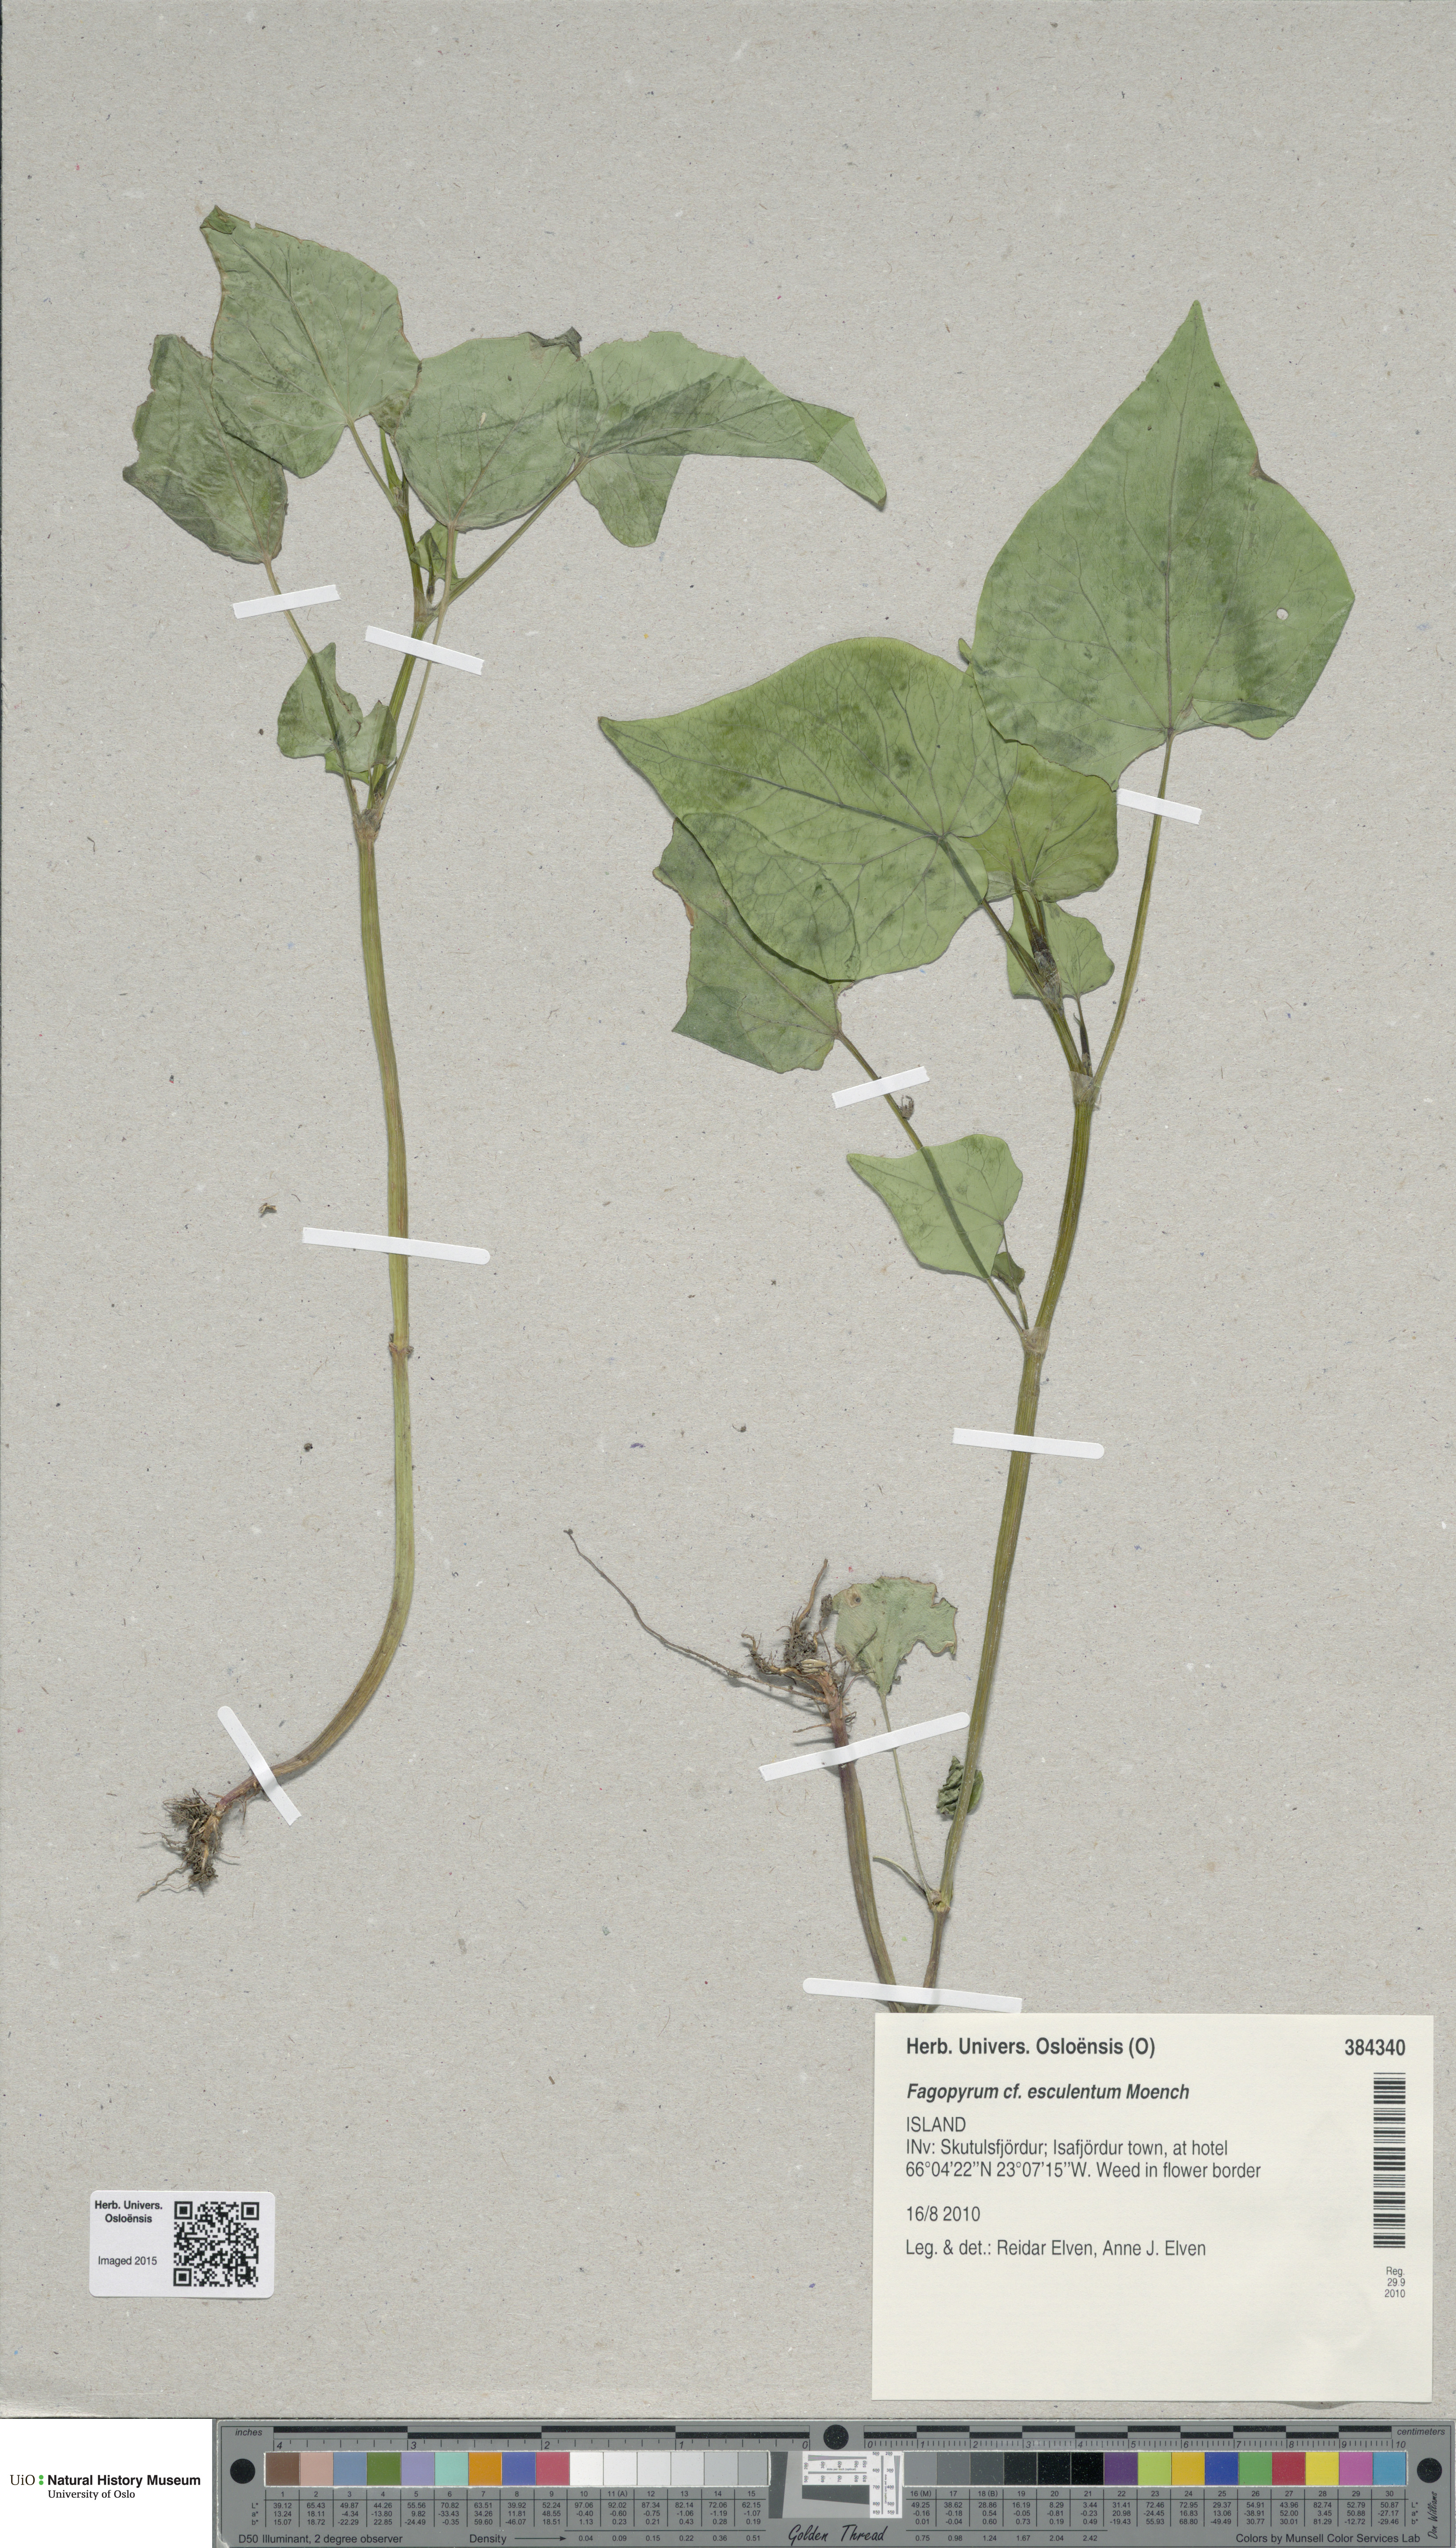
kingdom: Plantae
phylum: Tracheophyta
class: Magnoliopsida
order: Caryophyllales
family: Polygonaceae
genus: Fagopyrum
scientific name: Fagopyrum esculentum
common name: Buckwheat
